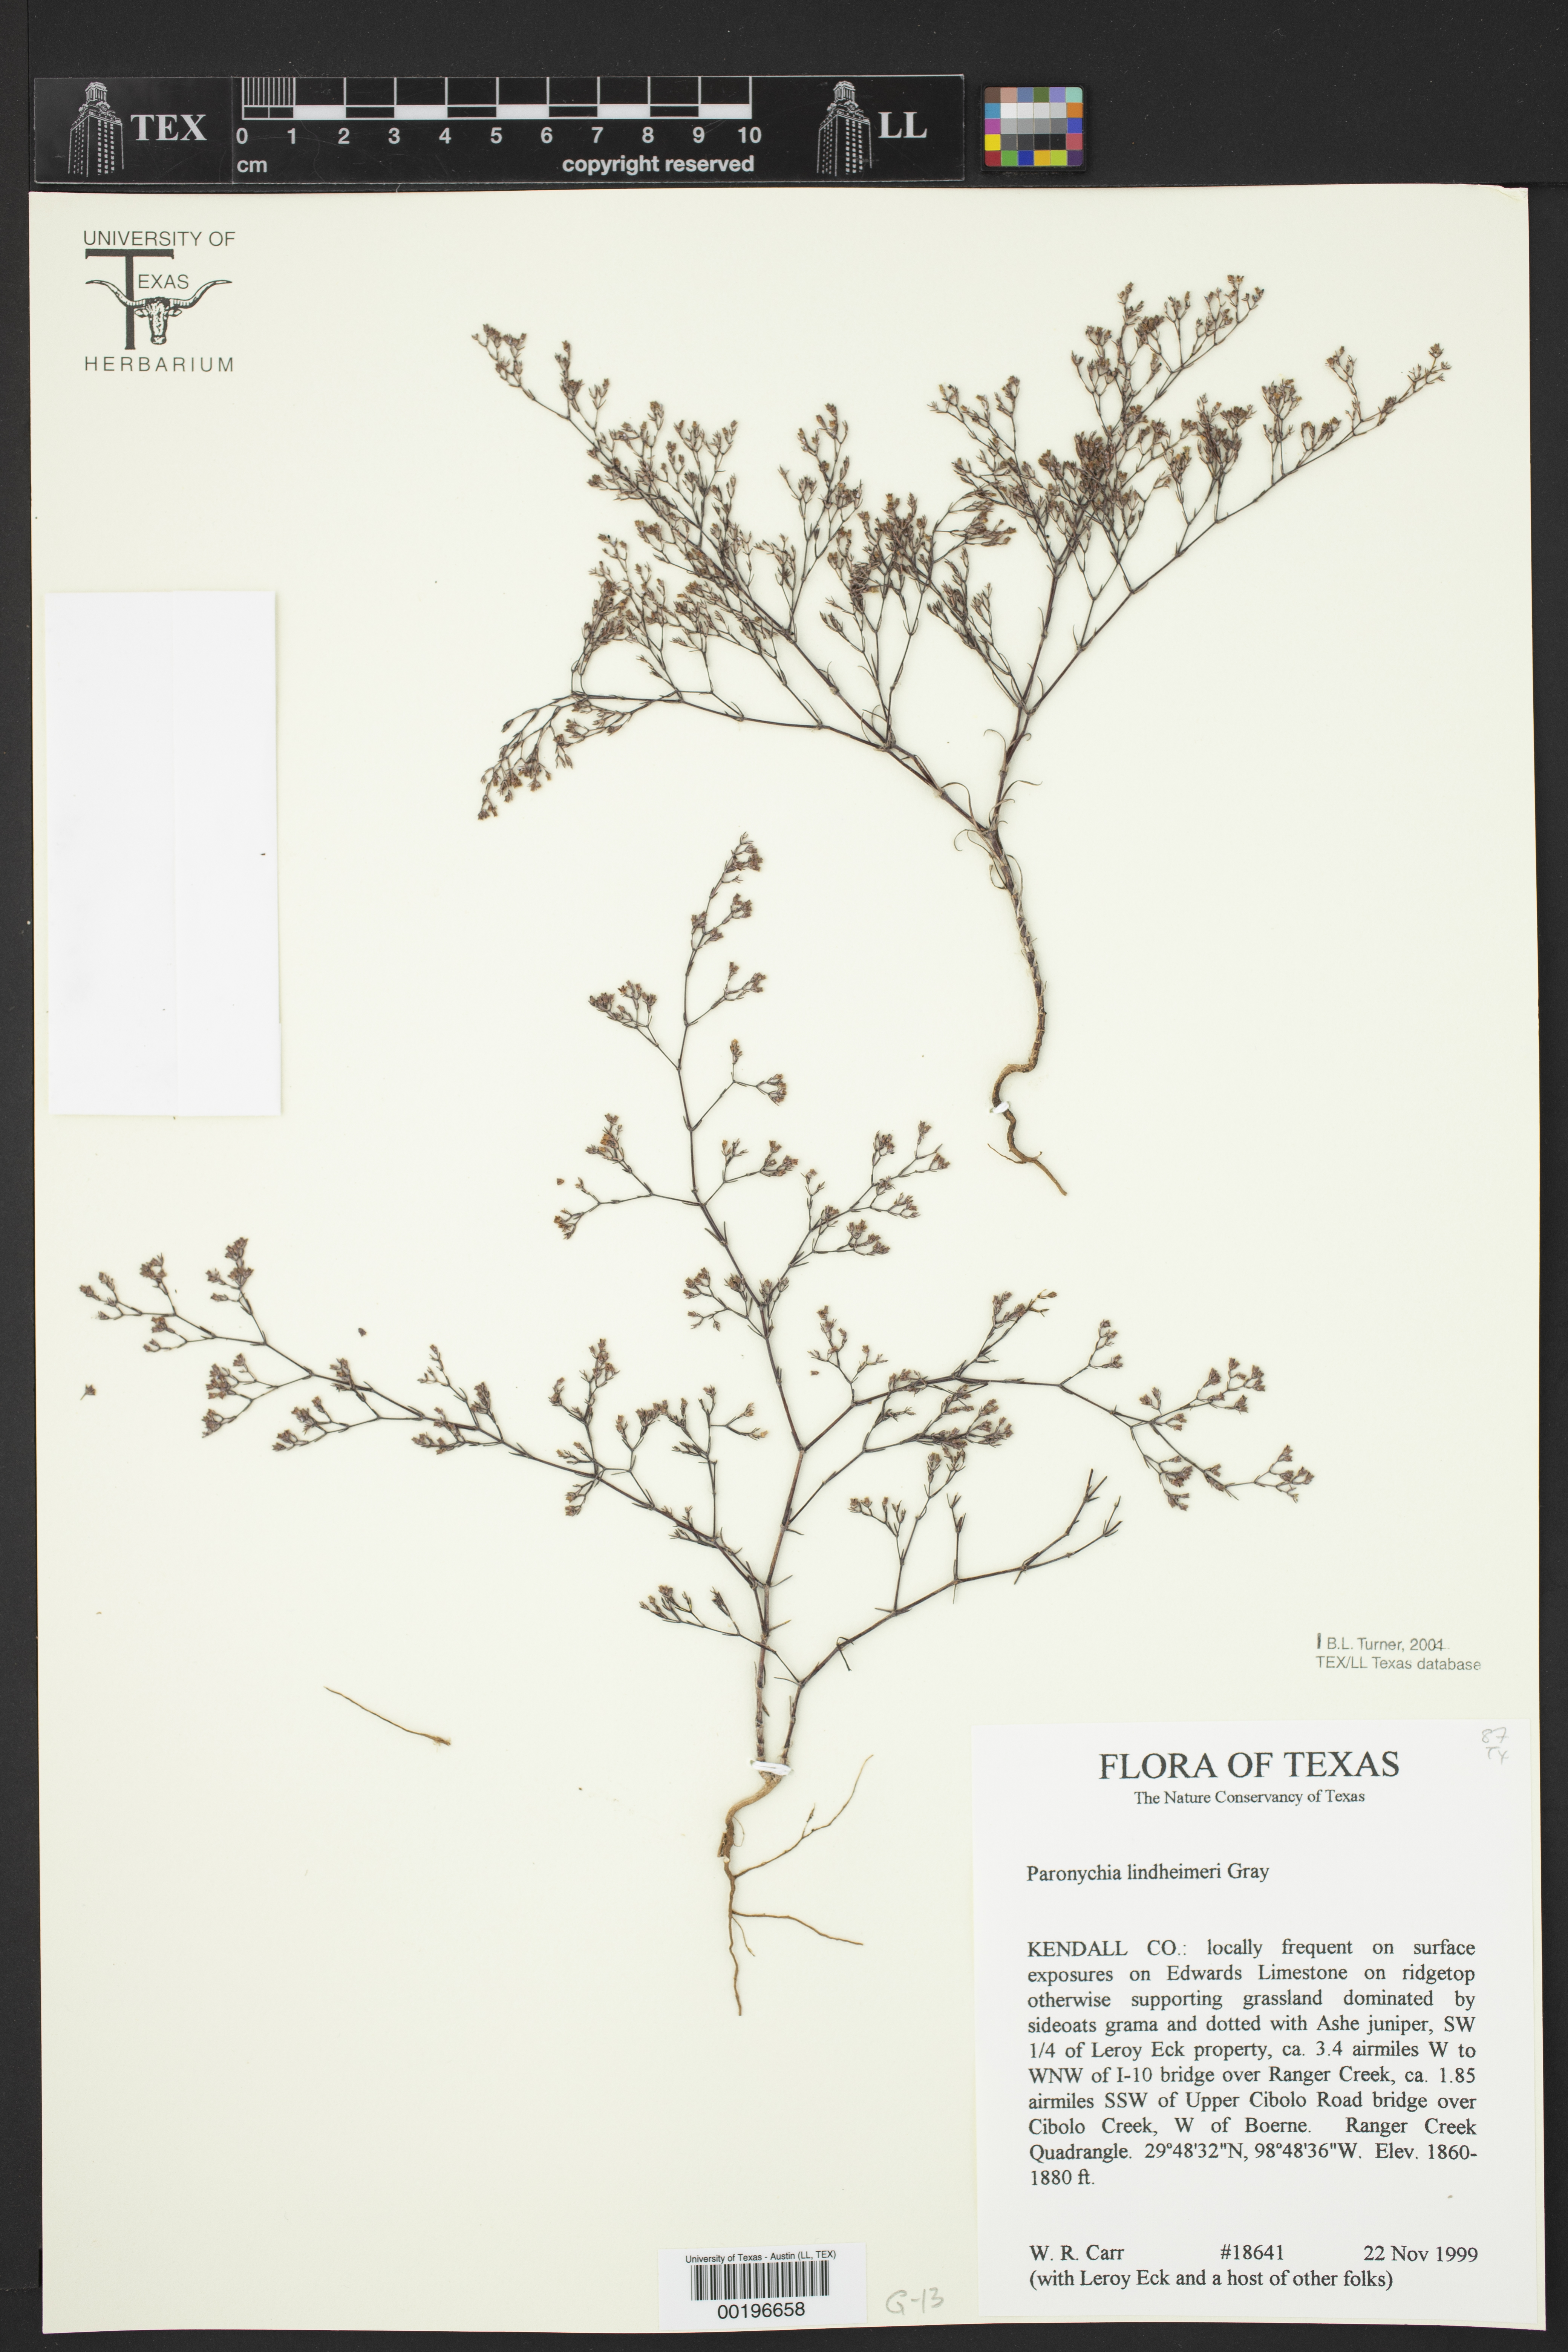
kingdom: Plantae
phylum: Tracheophyta
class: Magnoliopsida
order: Caryophyllales
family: Caryophyllaceae
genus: Paronychia
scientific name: Paronychia lindheimeri
